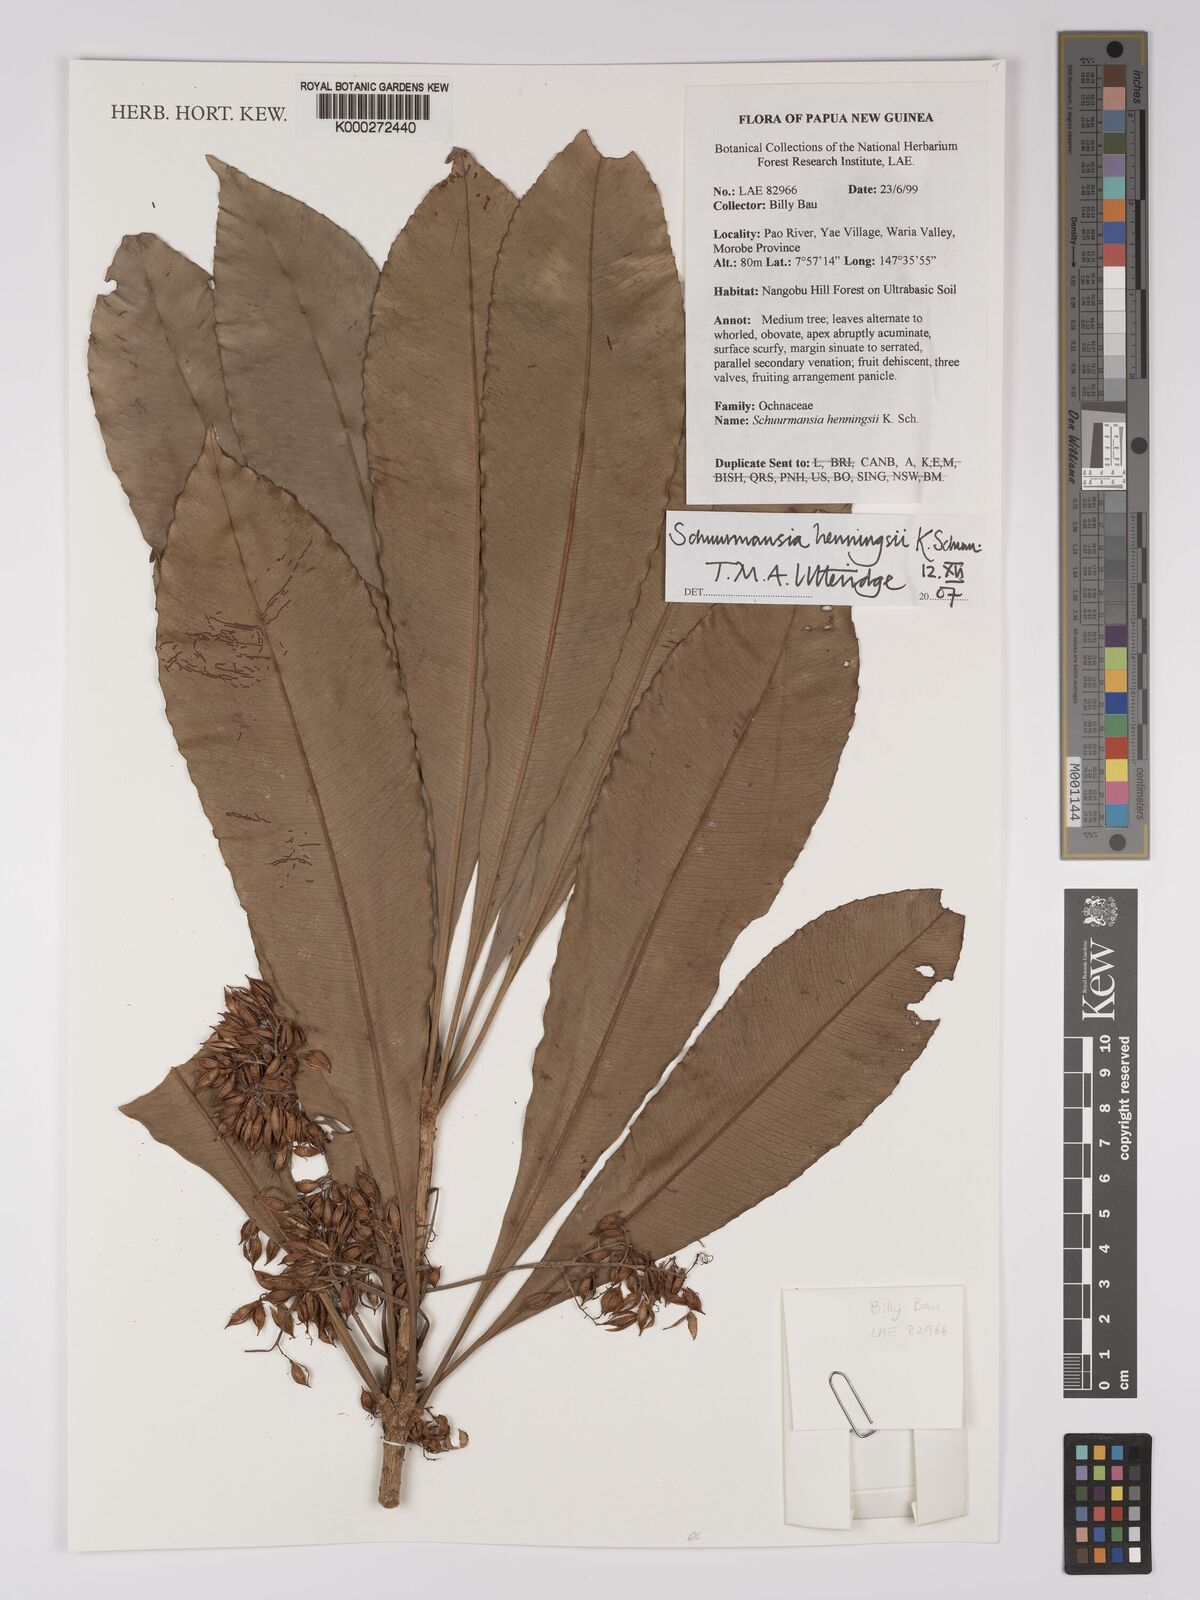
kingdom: Plantae
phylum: Tracheophyta
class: Magnoliopsida
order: Malpighiales
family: Ochnaceae
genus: Schuurmansia
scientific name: Schuurmansia
